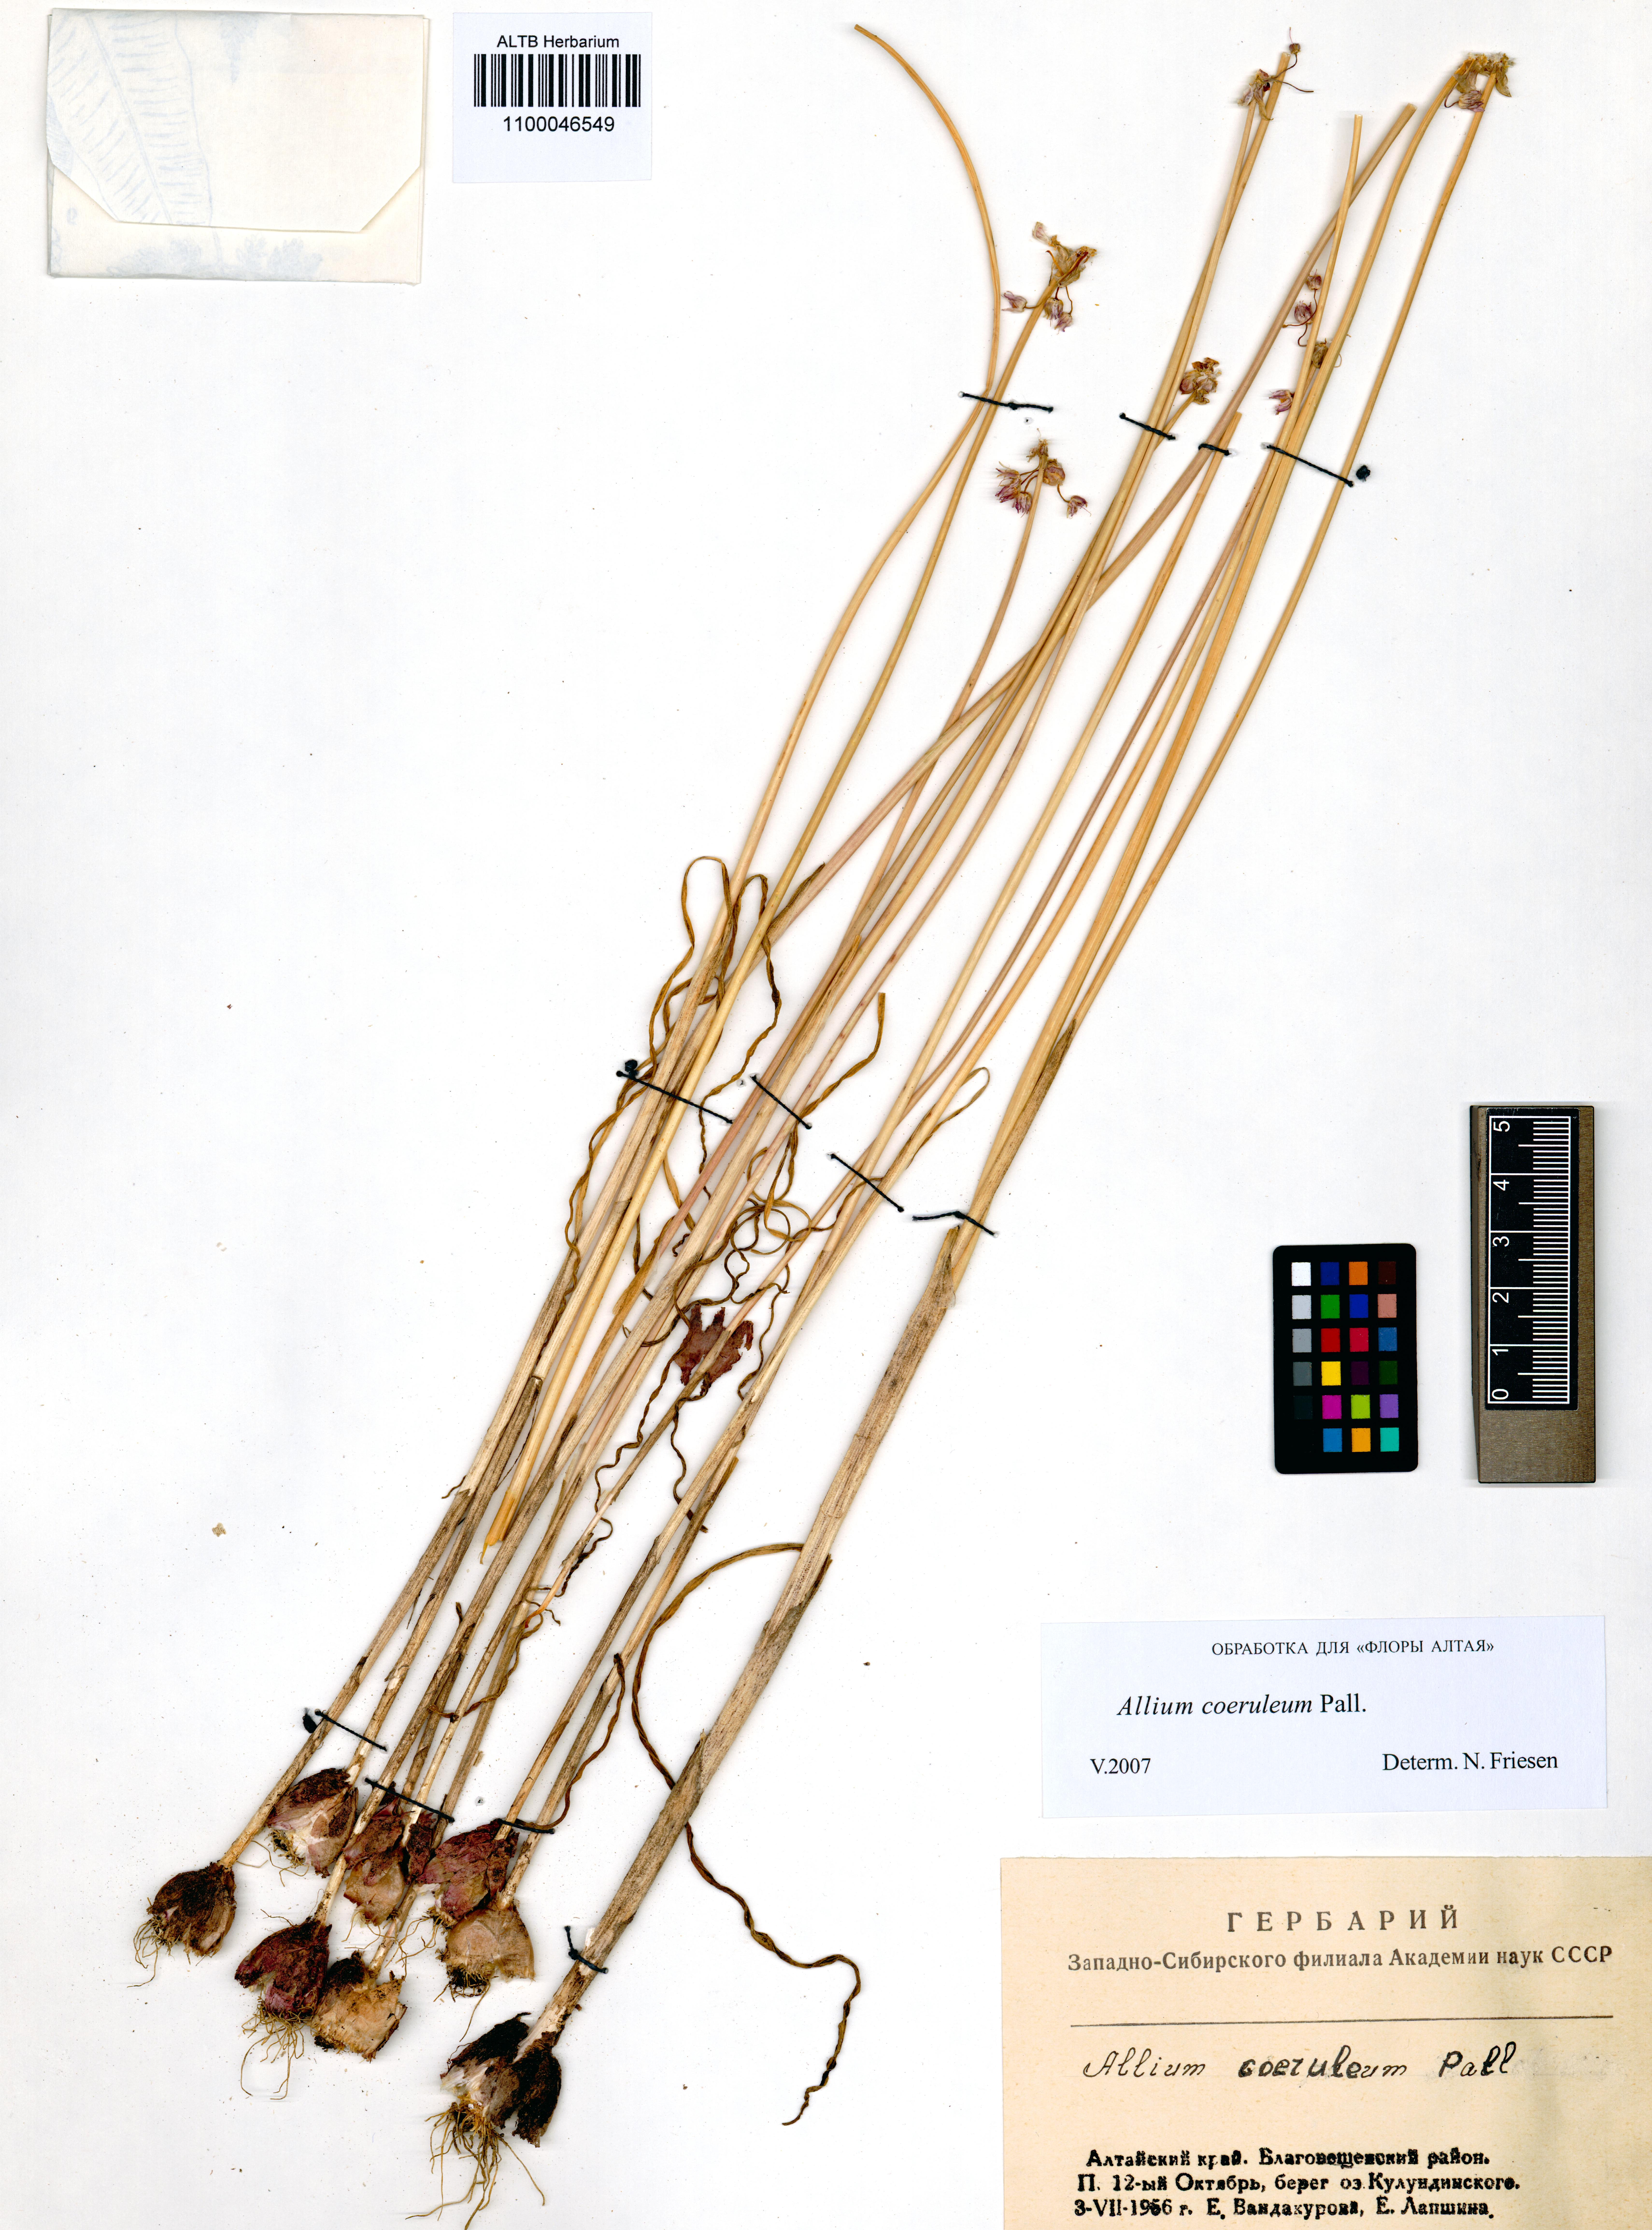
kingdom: Plantae
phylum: Tracheophyta
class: Liliopsida
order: Asparagales
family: Amaryllidaceae
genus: Allium
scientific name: Allium caeruleum
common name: Blue-of-the-heavens
